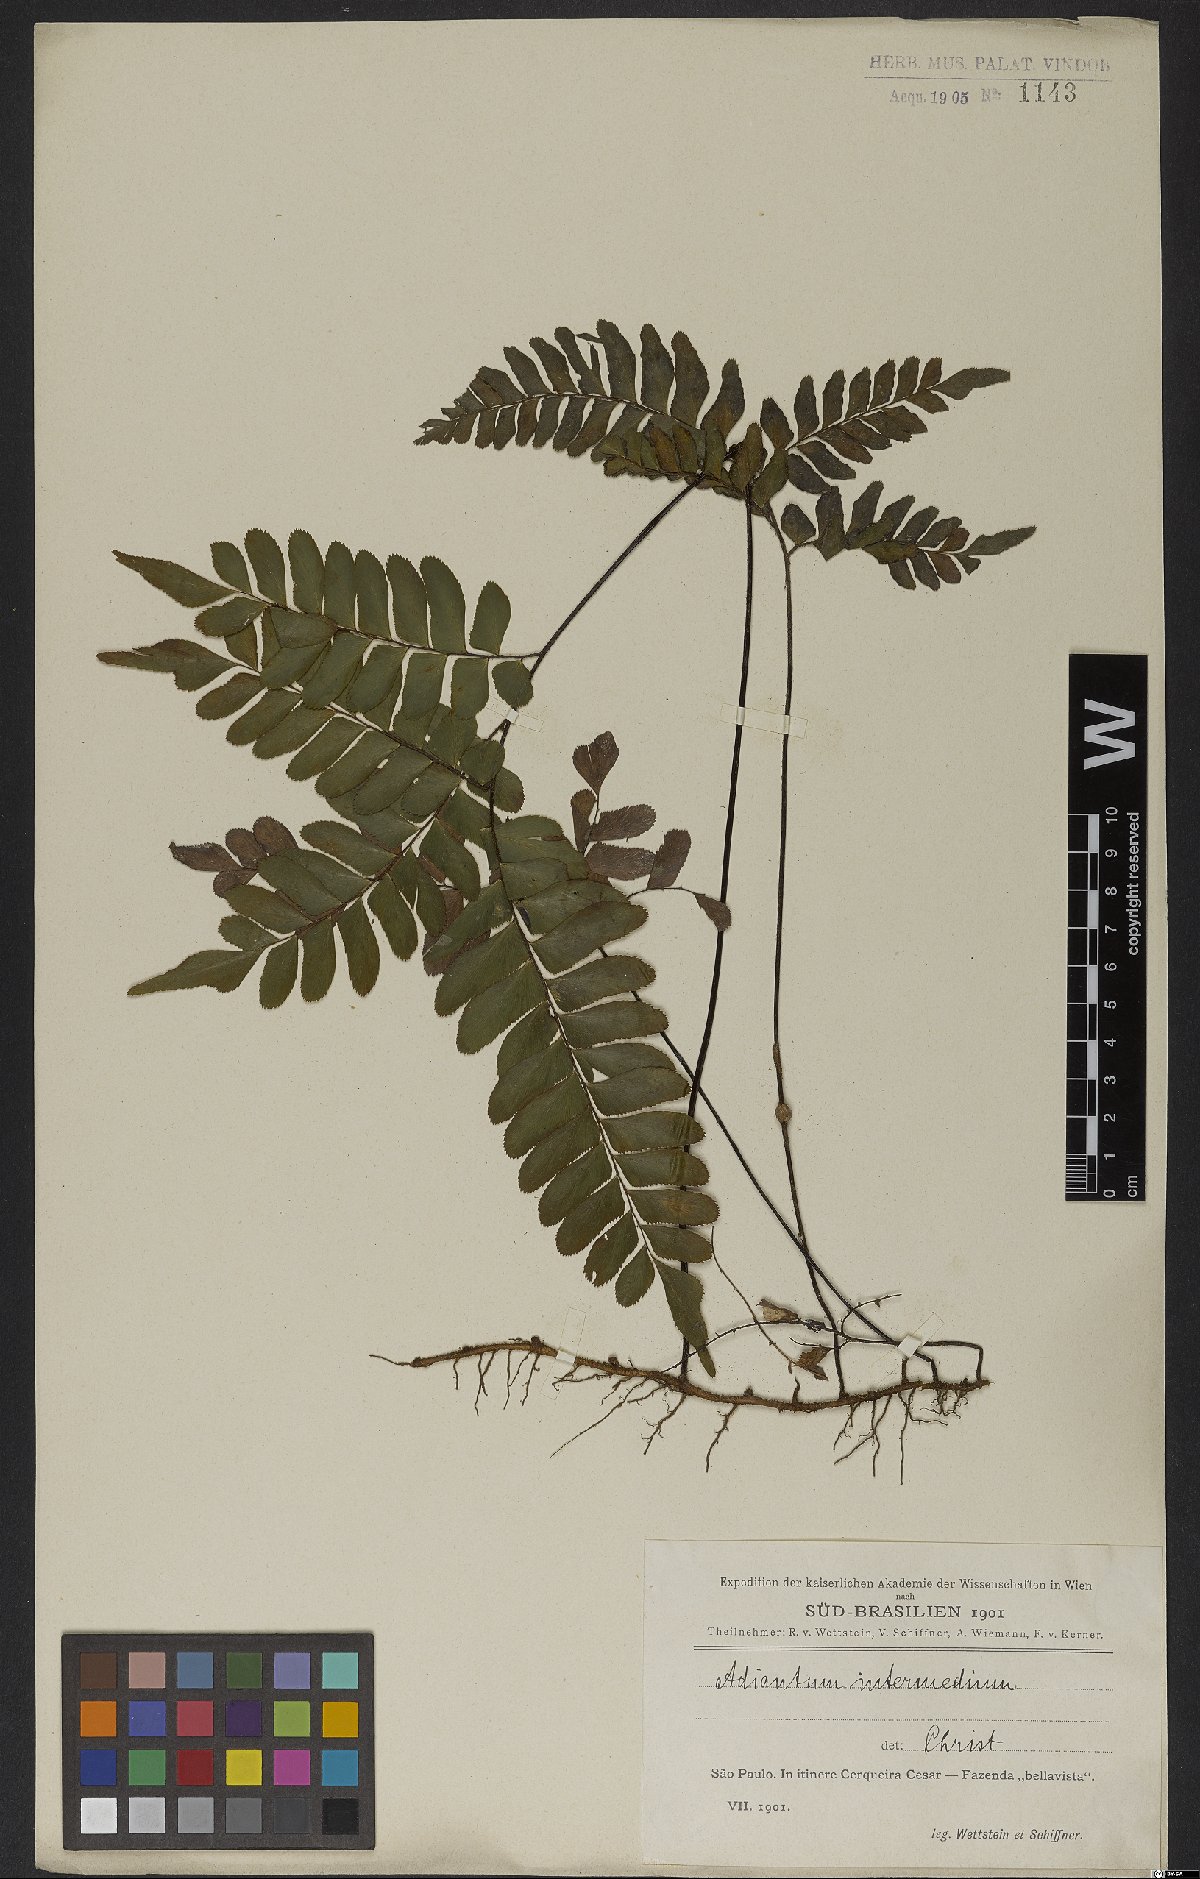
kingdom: Plantae
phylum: Tracheophyta
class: Polypodiopsida
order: Polypodiales
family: Pteridaceae
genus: Adiantum
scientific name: Adiantum intermedium
